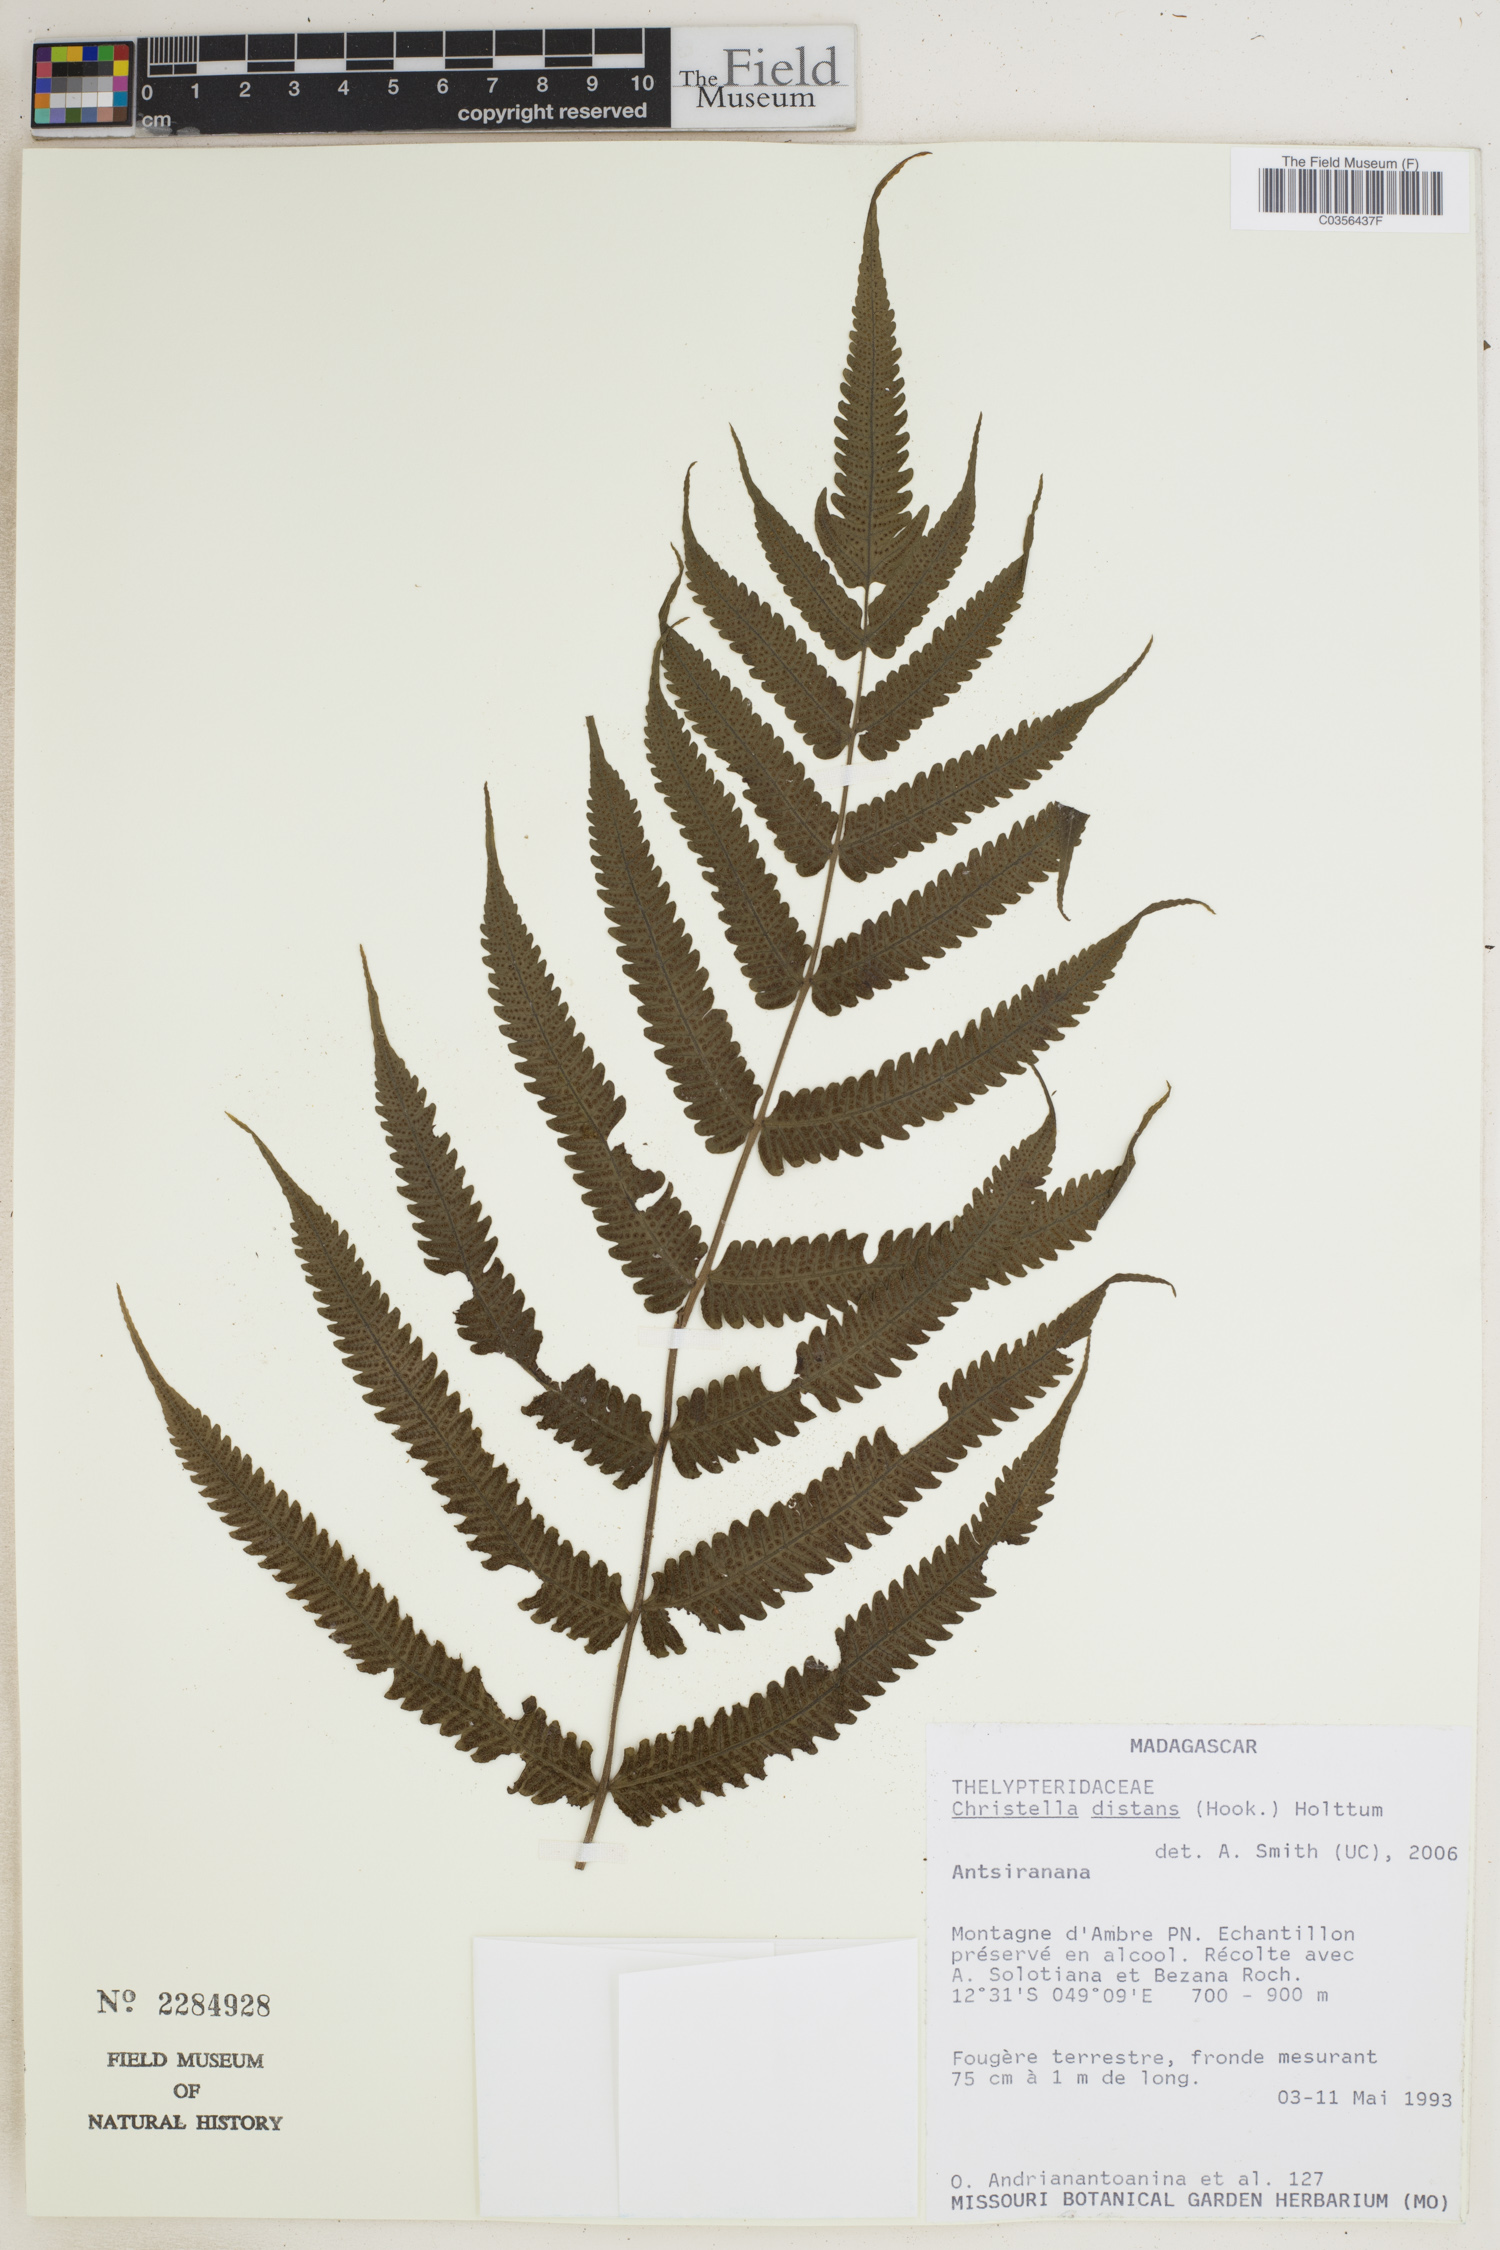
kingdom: Plantae
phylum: Tracheophyta
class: Polypodiopsida
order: Polypodiales
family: Thelypteridaceae
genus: Christella
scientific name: Christella distans
